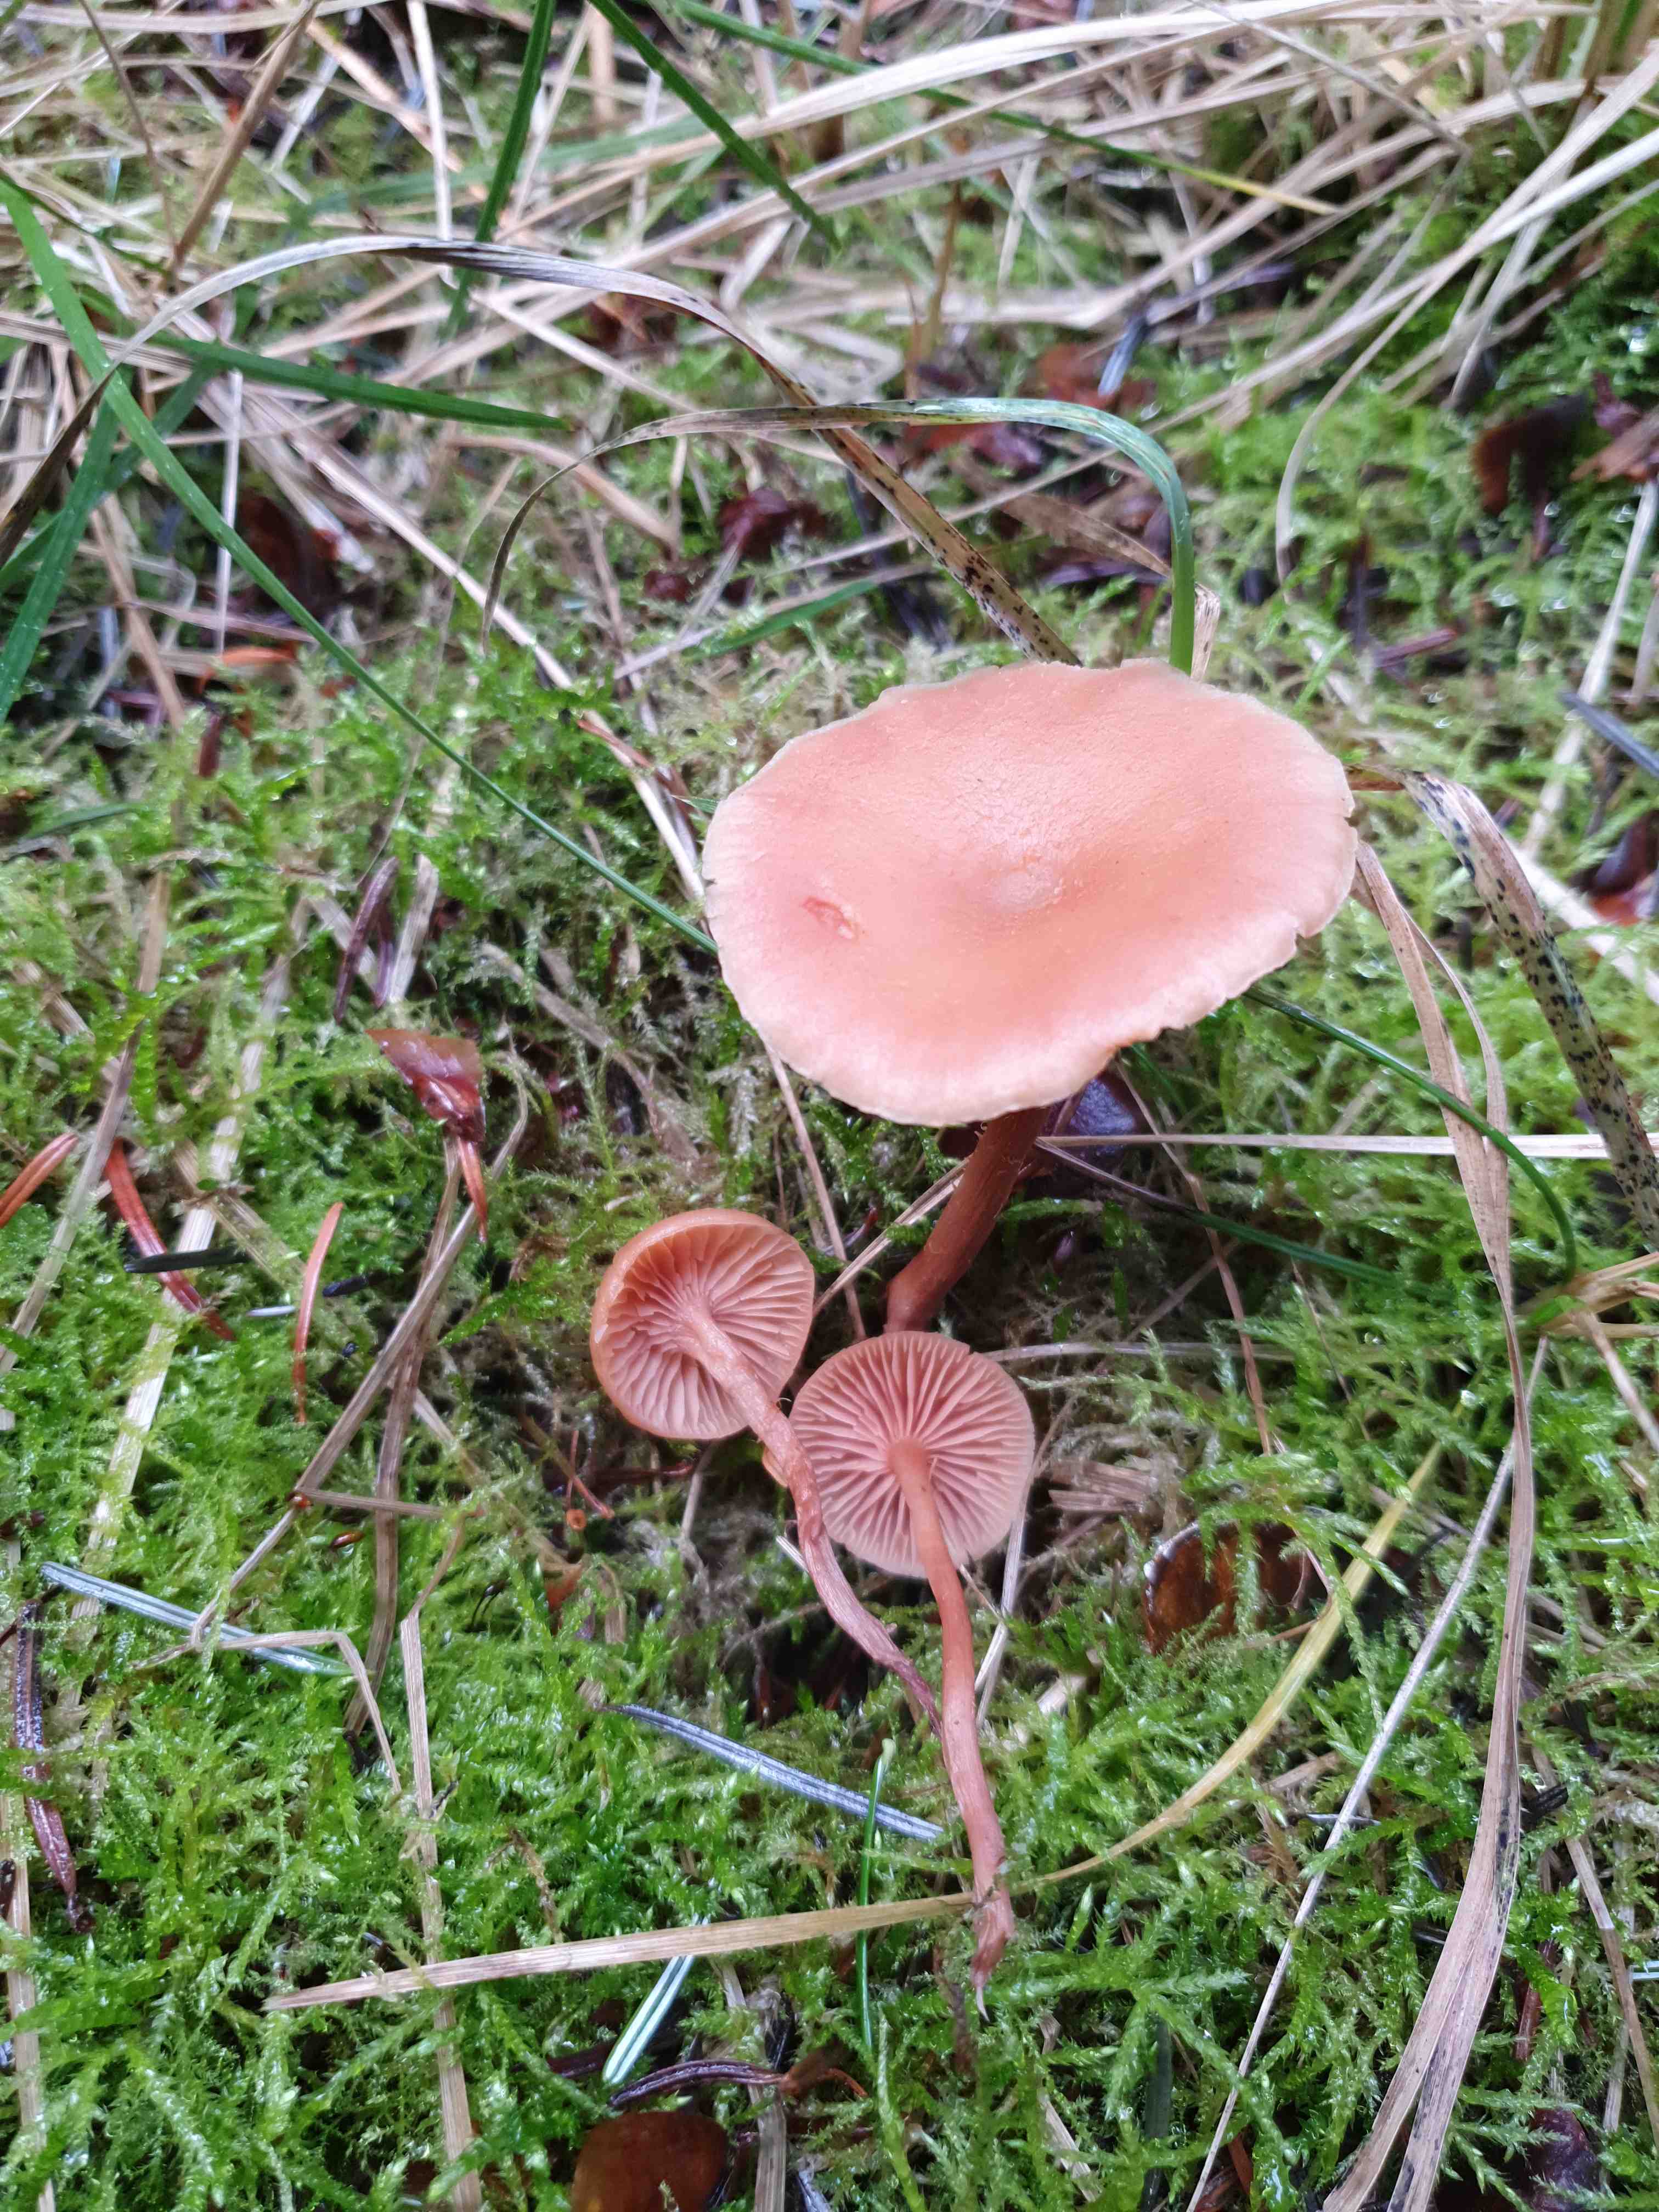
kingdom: Fungi
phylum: Basidiomycota
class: Agaricomycetes
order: Agaricales
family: Hydnangiaceae
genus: Laccaria
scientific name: Laccaria laccata
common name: rød ametysthat
